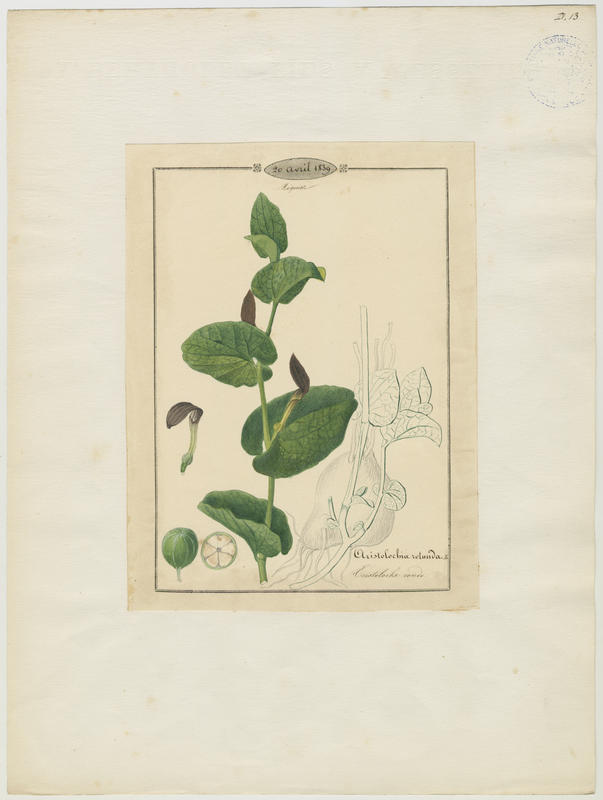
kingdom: Plantae
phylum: Tracheophyta
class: Magnoliopsida
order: Piperales
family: Aristolochiaceae
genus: Aristolochia
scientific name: Aristolochia rotunda
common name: Smearwort
